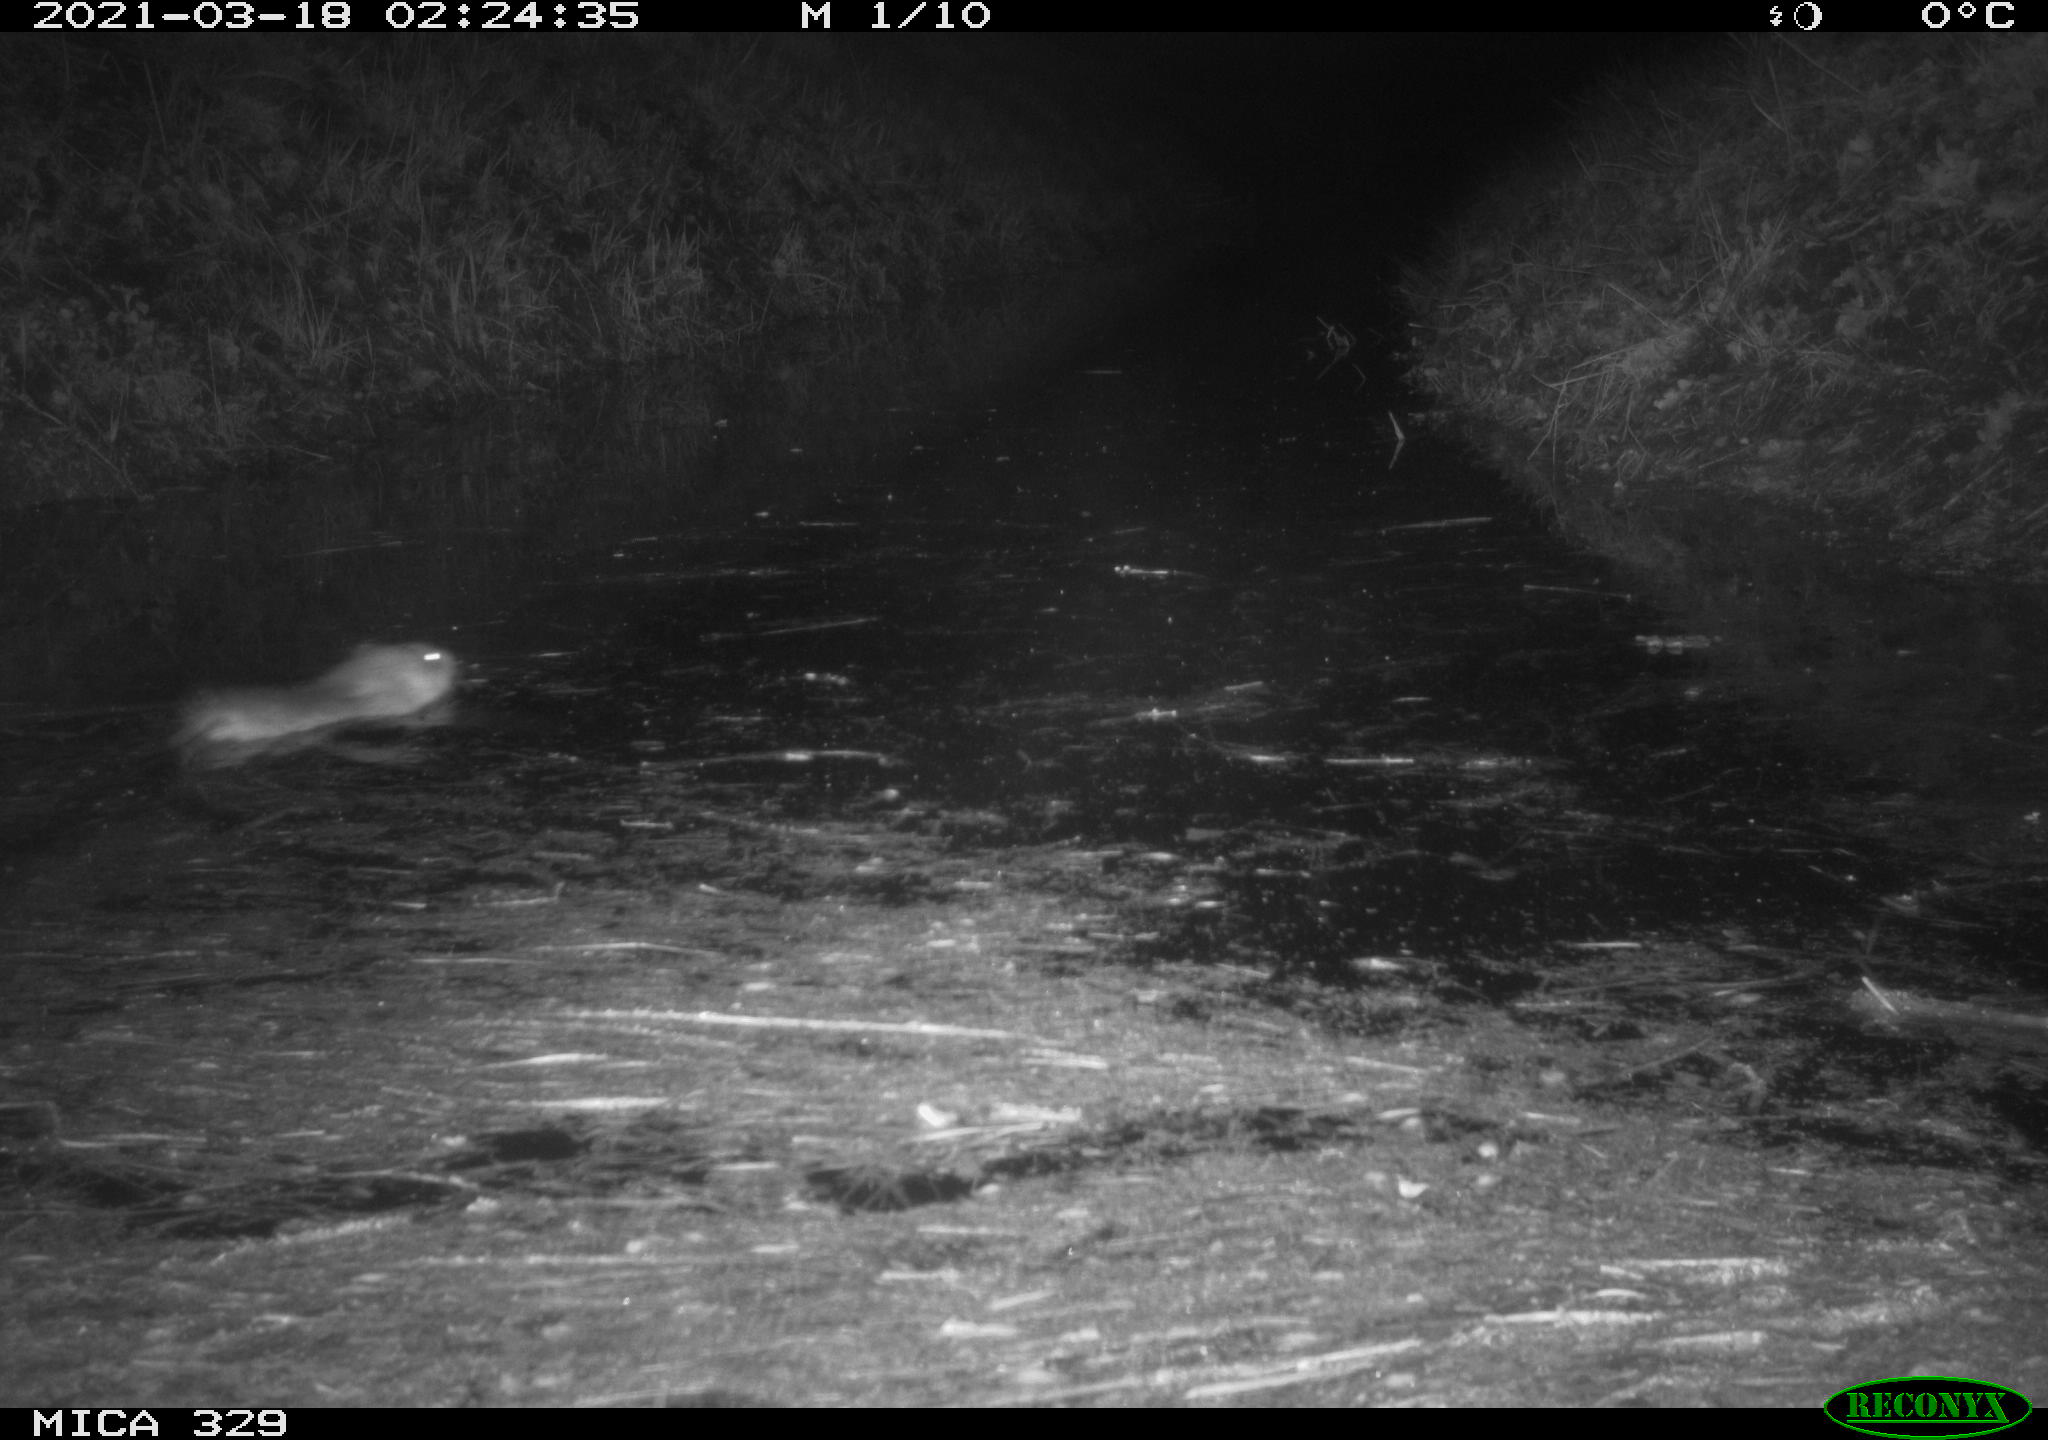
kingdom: Animalia
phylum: Chordata
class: Mammalia
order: Rodentia
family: Cricetidae
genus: Ondatra
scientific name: Ondatra zibethicus
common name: Muskrat
